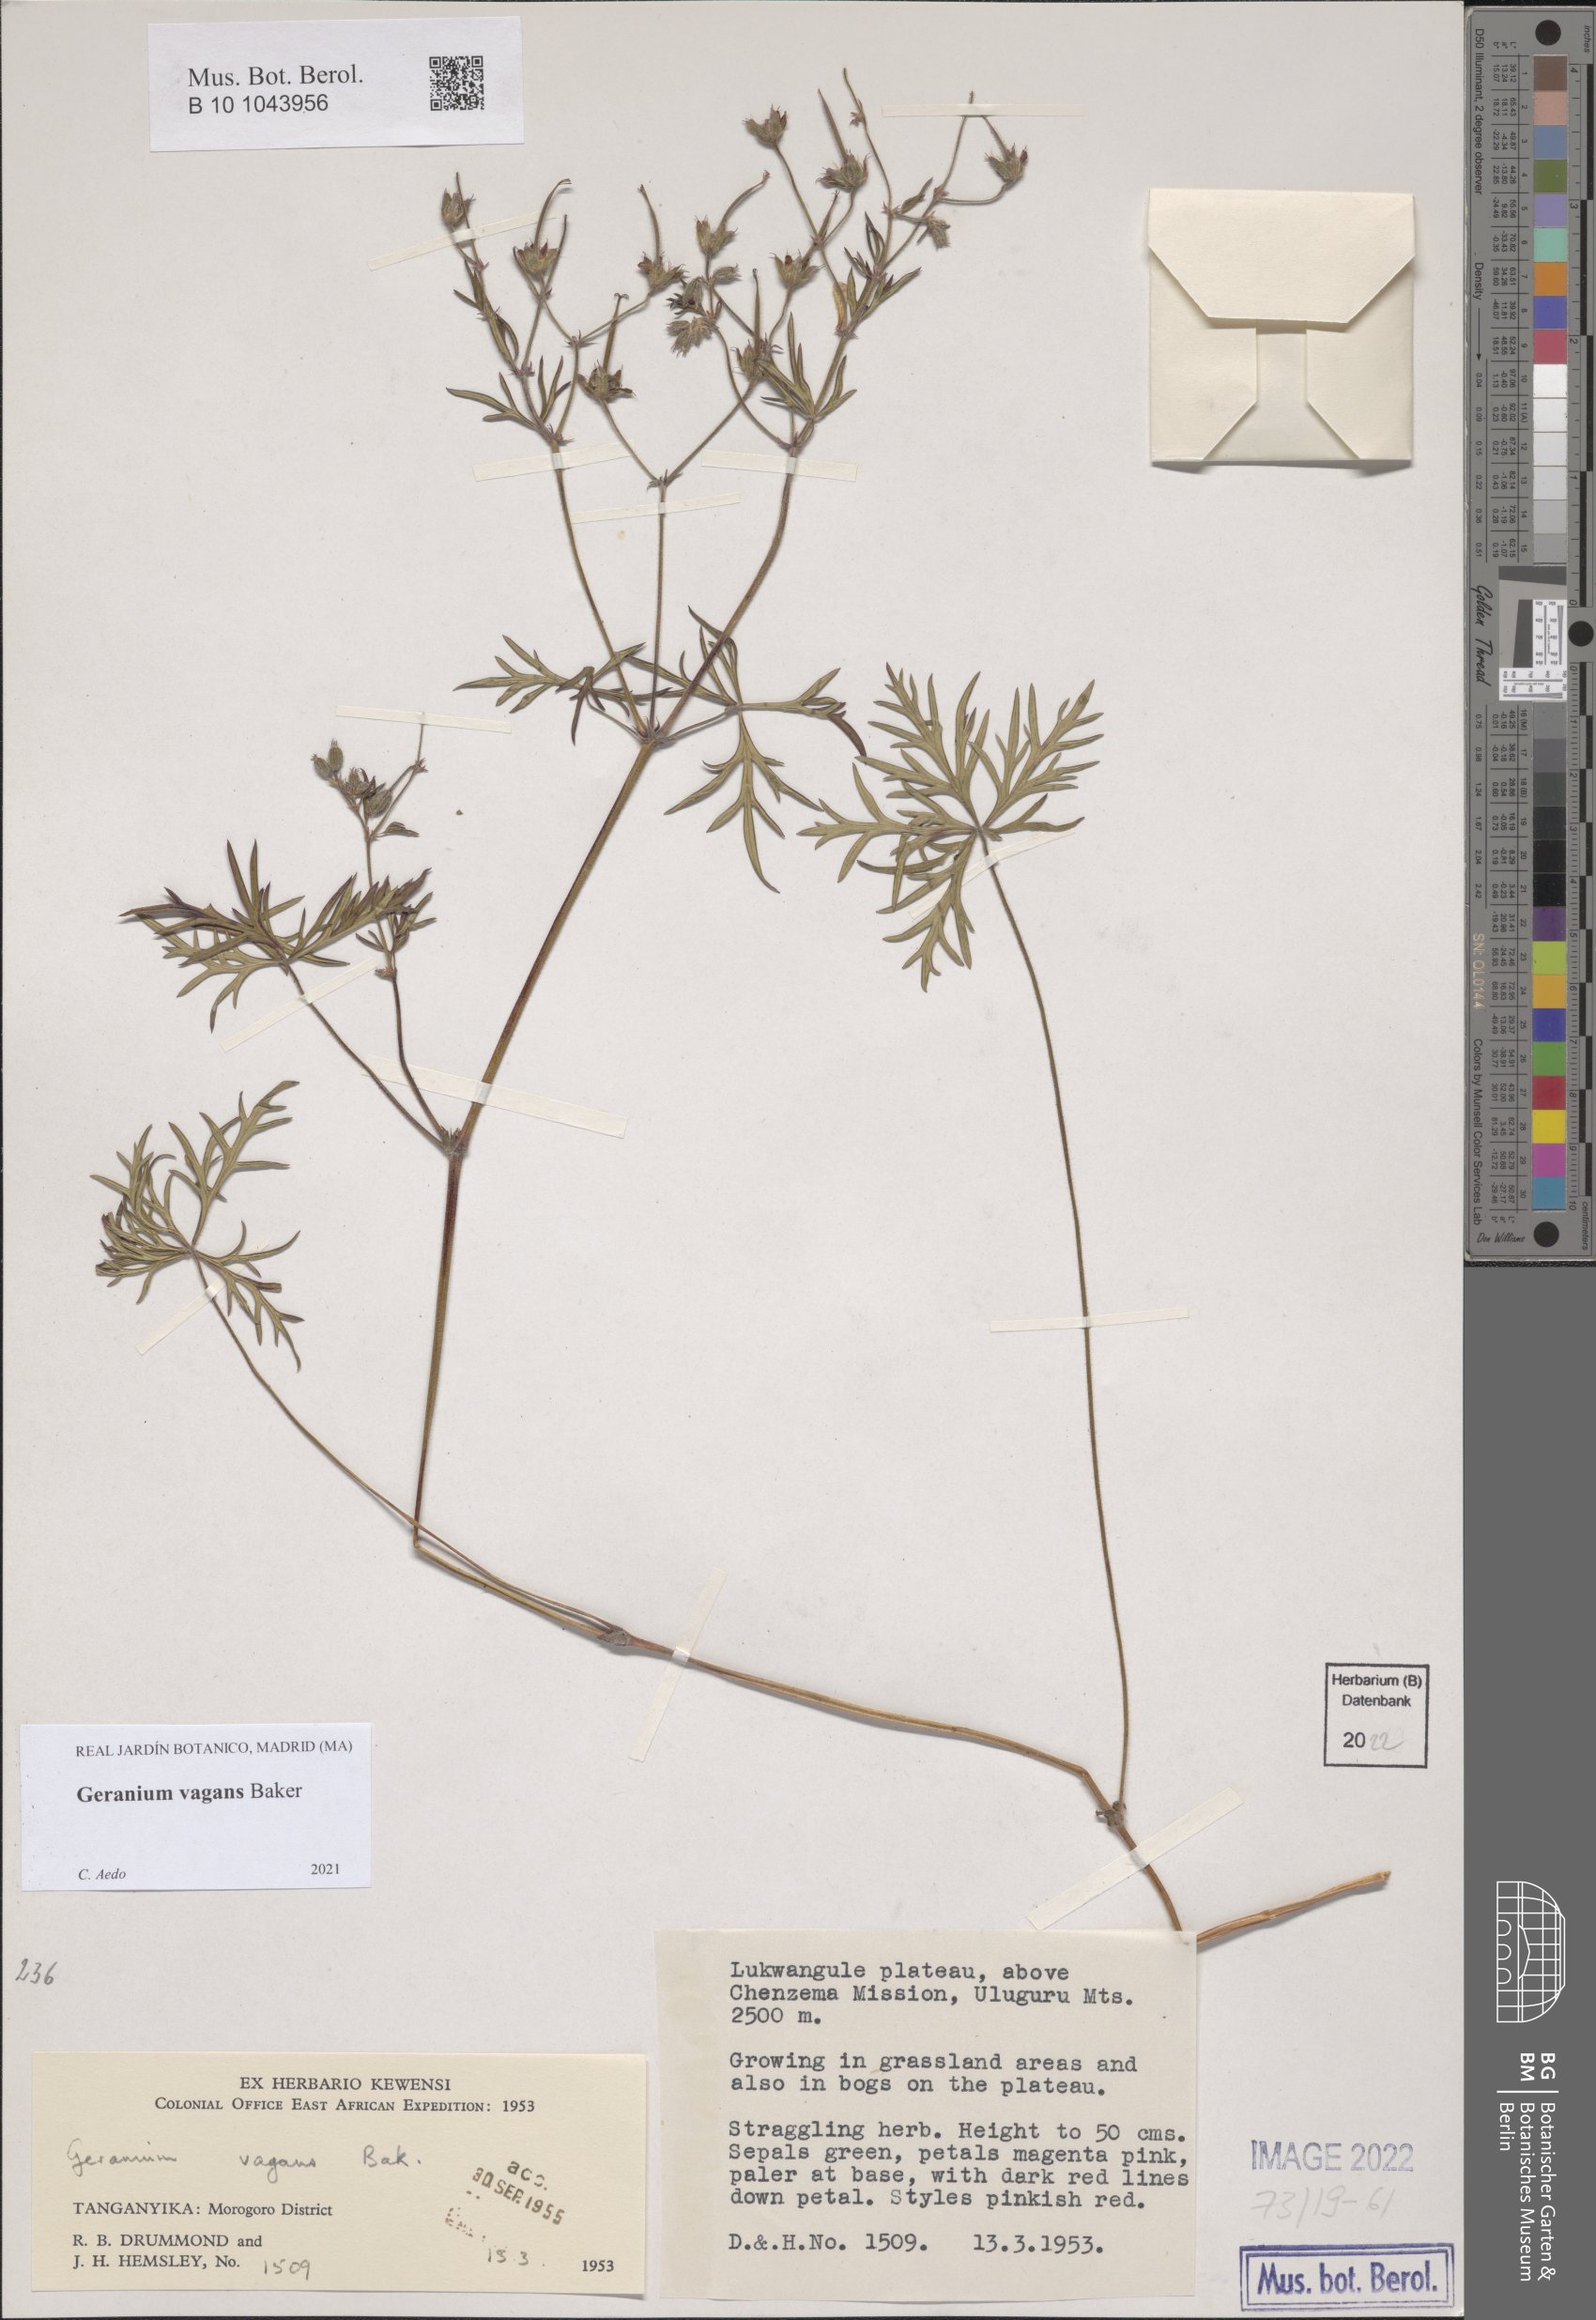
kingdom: Plantae
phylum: Tracheophyta
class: Magnoliopsida
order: Geraniales
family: Geraniaceae
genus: Geranium
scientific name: Geranium vagans
